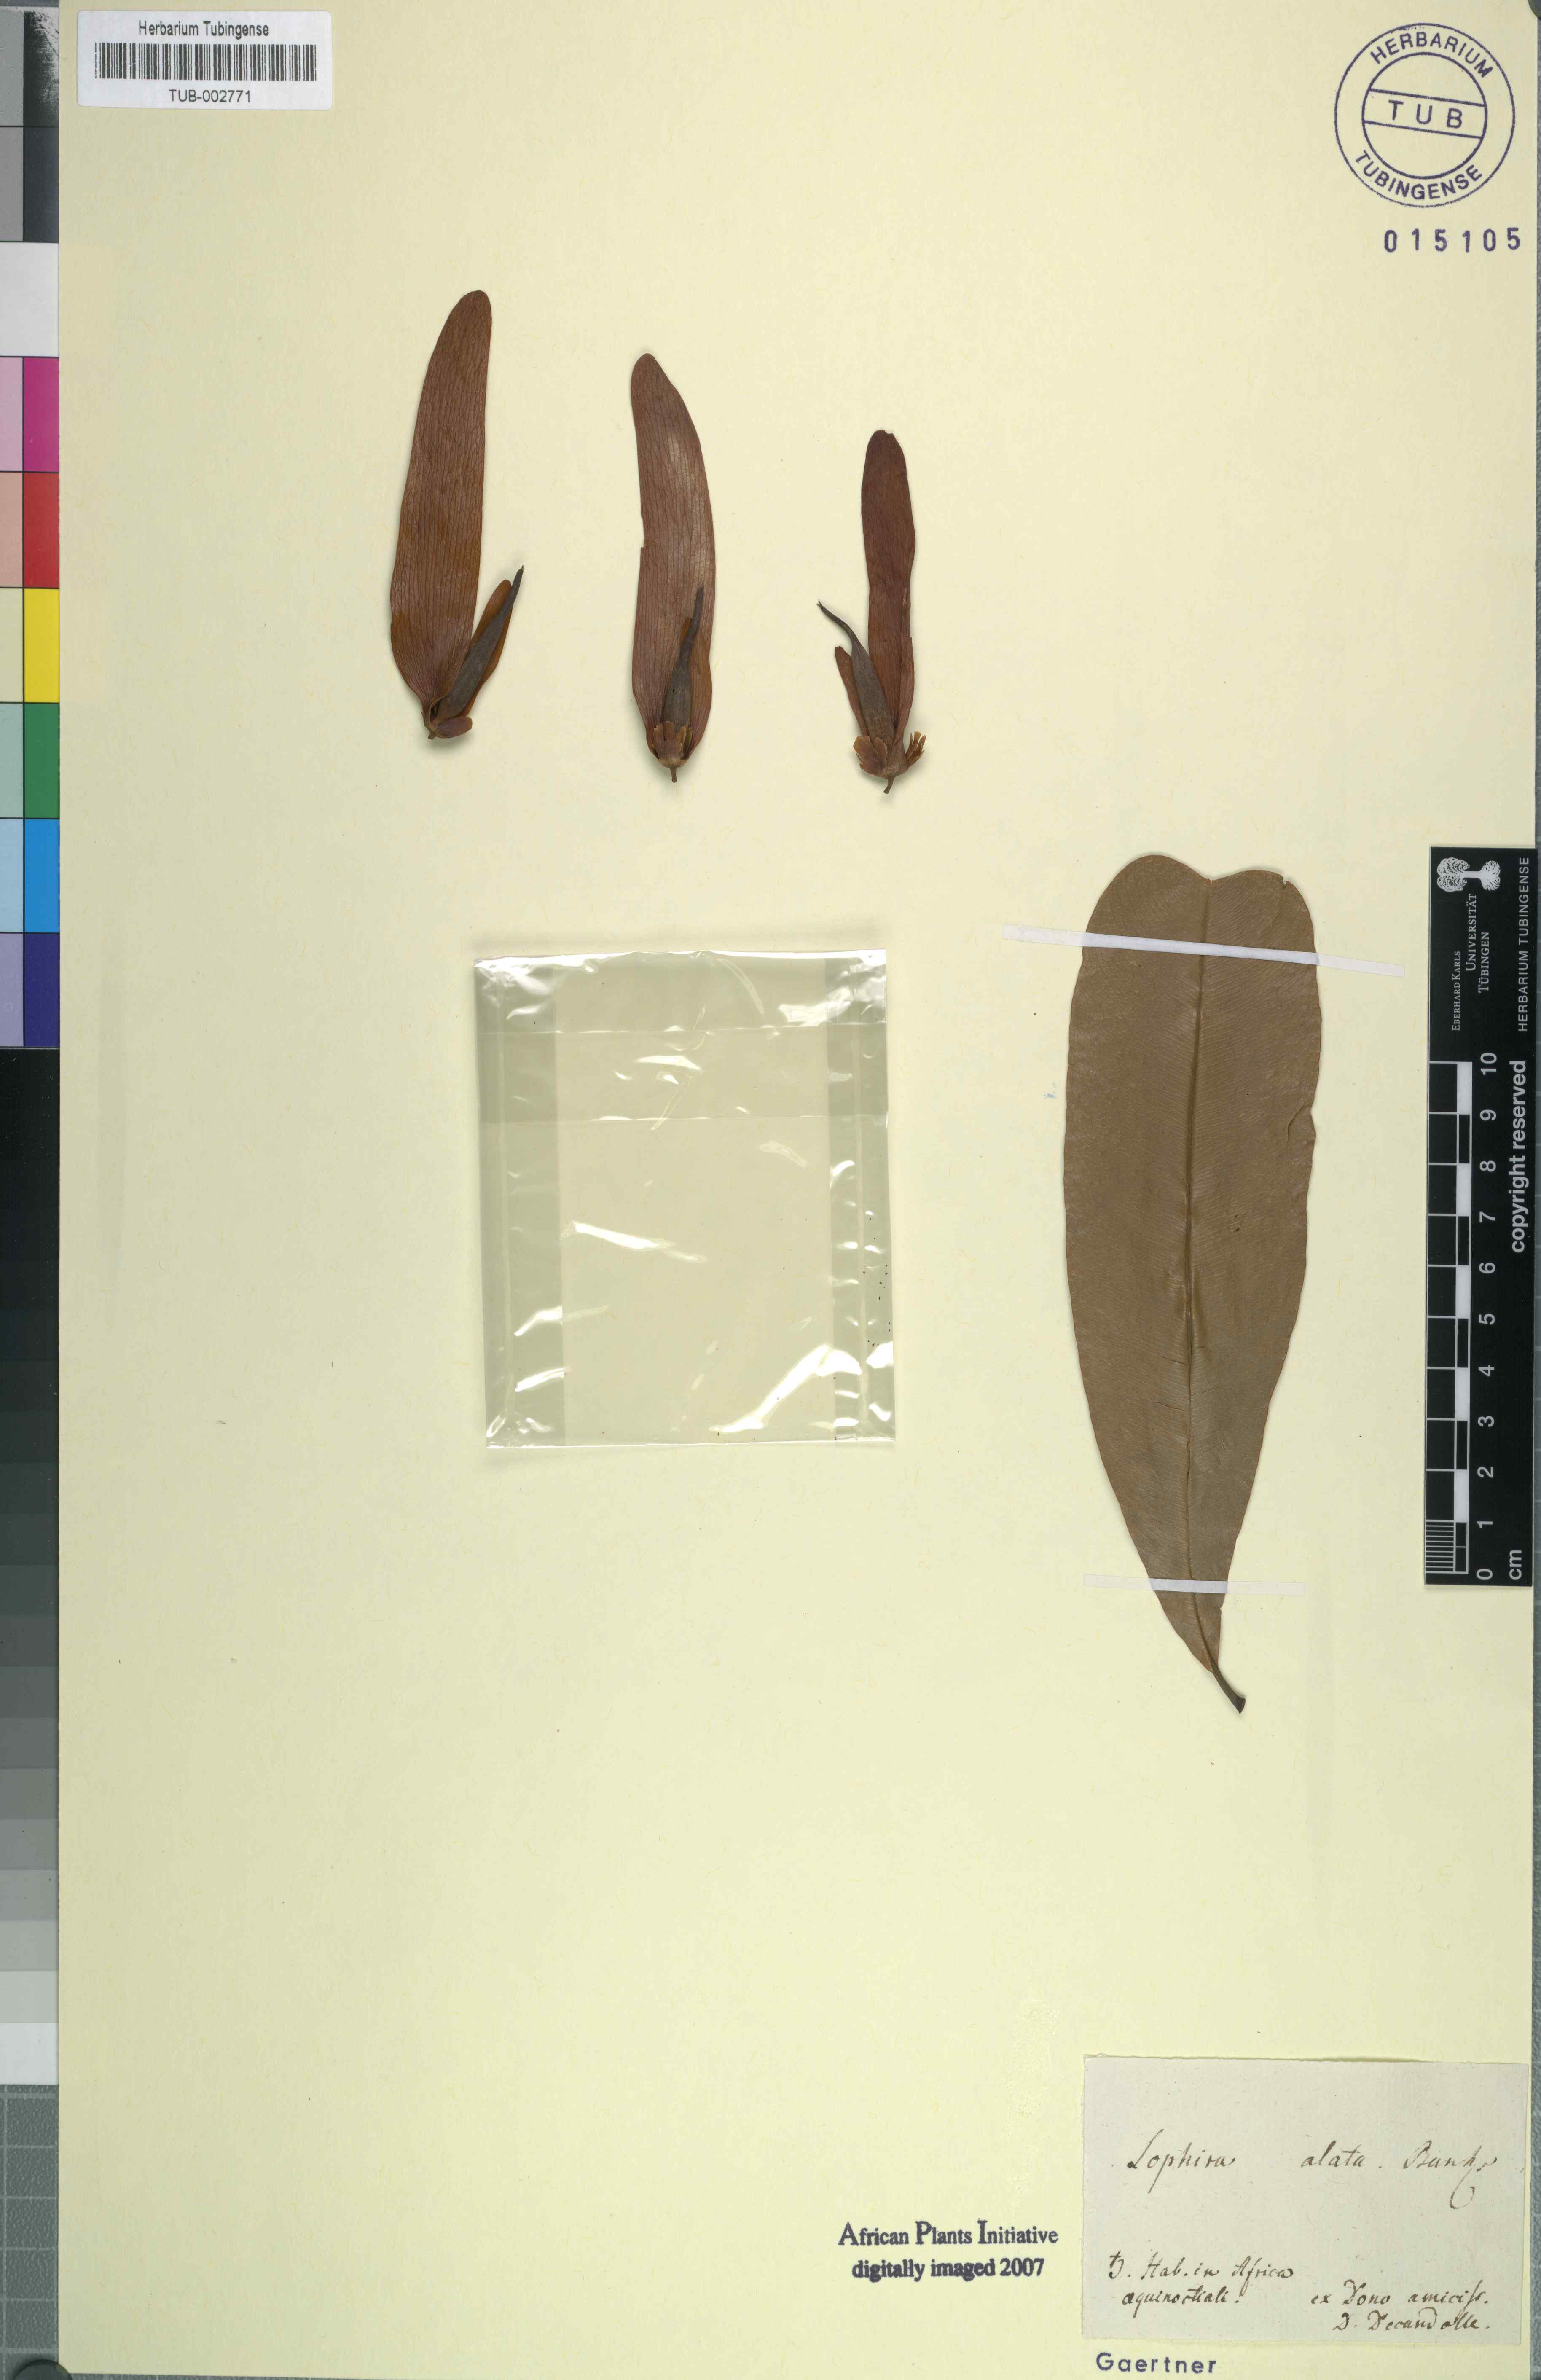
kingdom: Plantae
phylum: Tracheophyta
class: Magnoliopsida
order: Malpighiales
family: Ochnaceae
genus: Lophira
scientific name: Lophira alata
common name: Azobe
